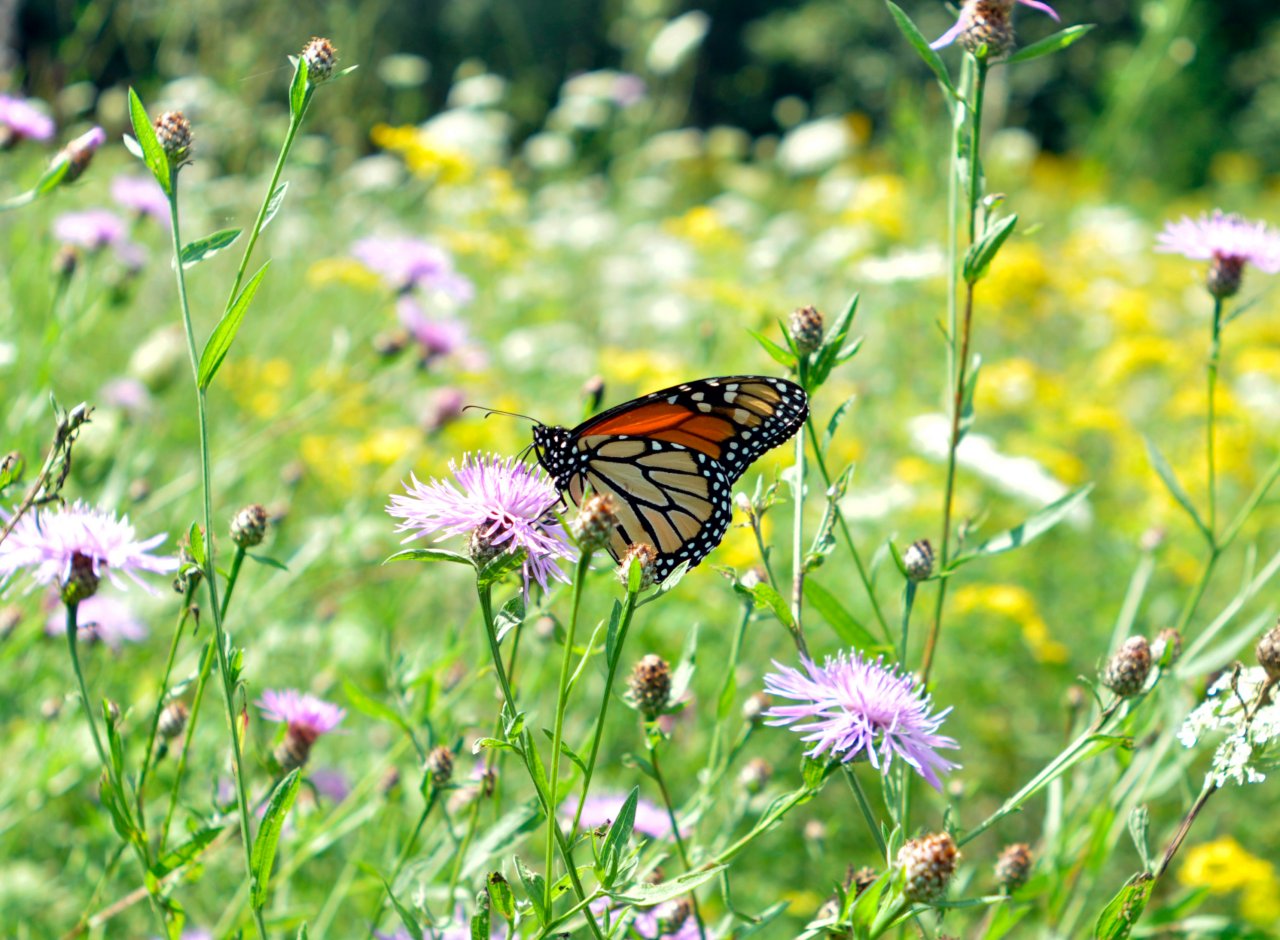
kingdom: Animalia
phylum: Arthropoda
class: Insecta
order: Lepidoptera
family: Nymphalidae
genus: Danaus
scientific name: Danaus plexippus
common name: Monarch
